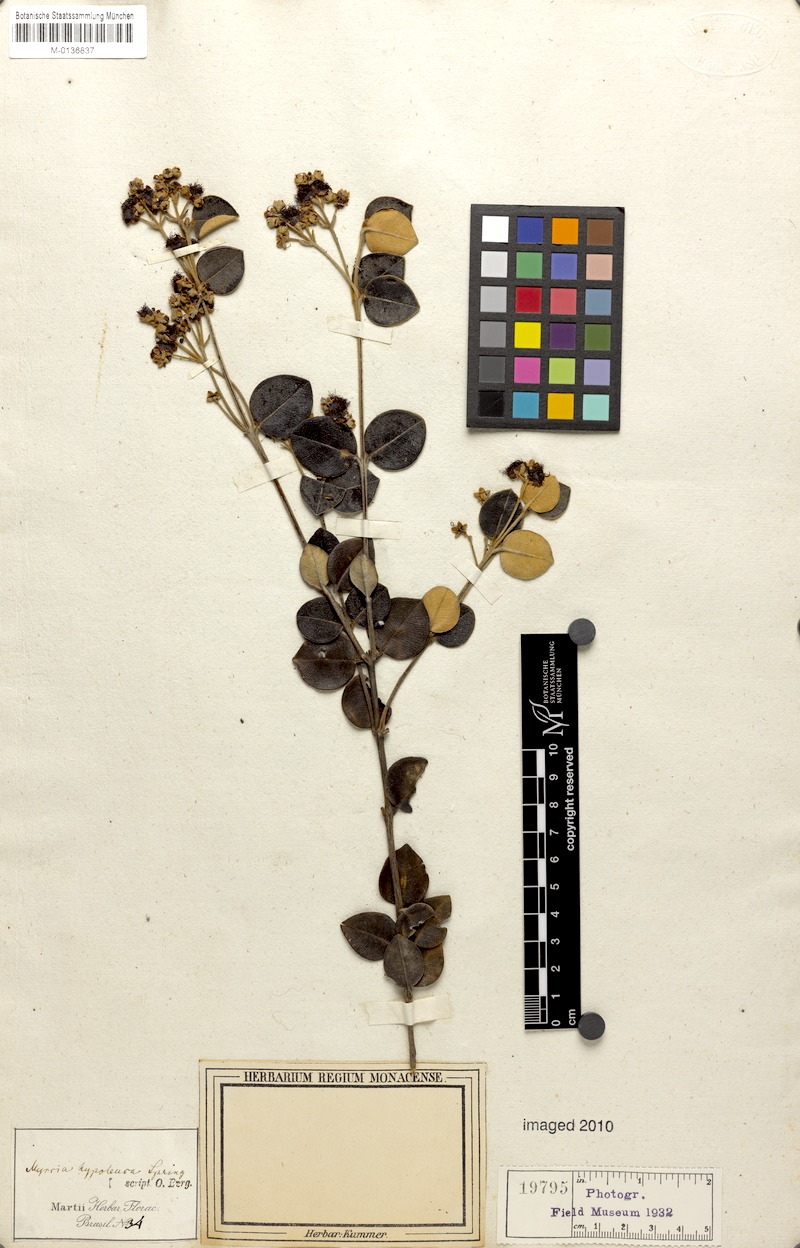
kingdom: Plantae
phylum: Tracheophyta
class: Magnoliopsida
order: Myrtales
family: Myrtaceae
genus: Myrcia
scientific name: Myrcia hypoleuca
